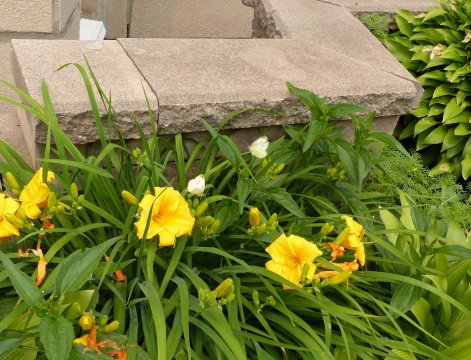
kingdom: Animalia
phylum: Arthropoda
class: Insecta
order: Lepidoptera
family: Pieridae
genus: Pieris
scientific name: Pieris rapae
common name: Cabbage White
